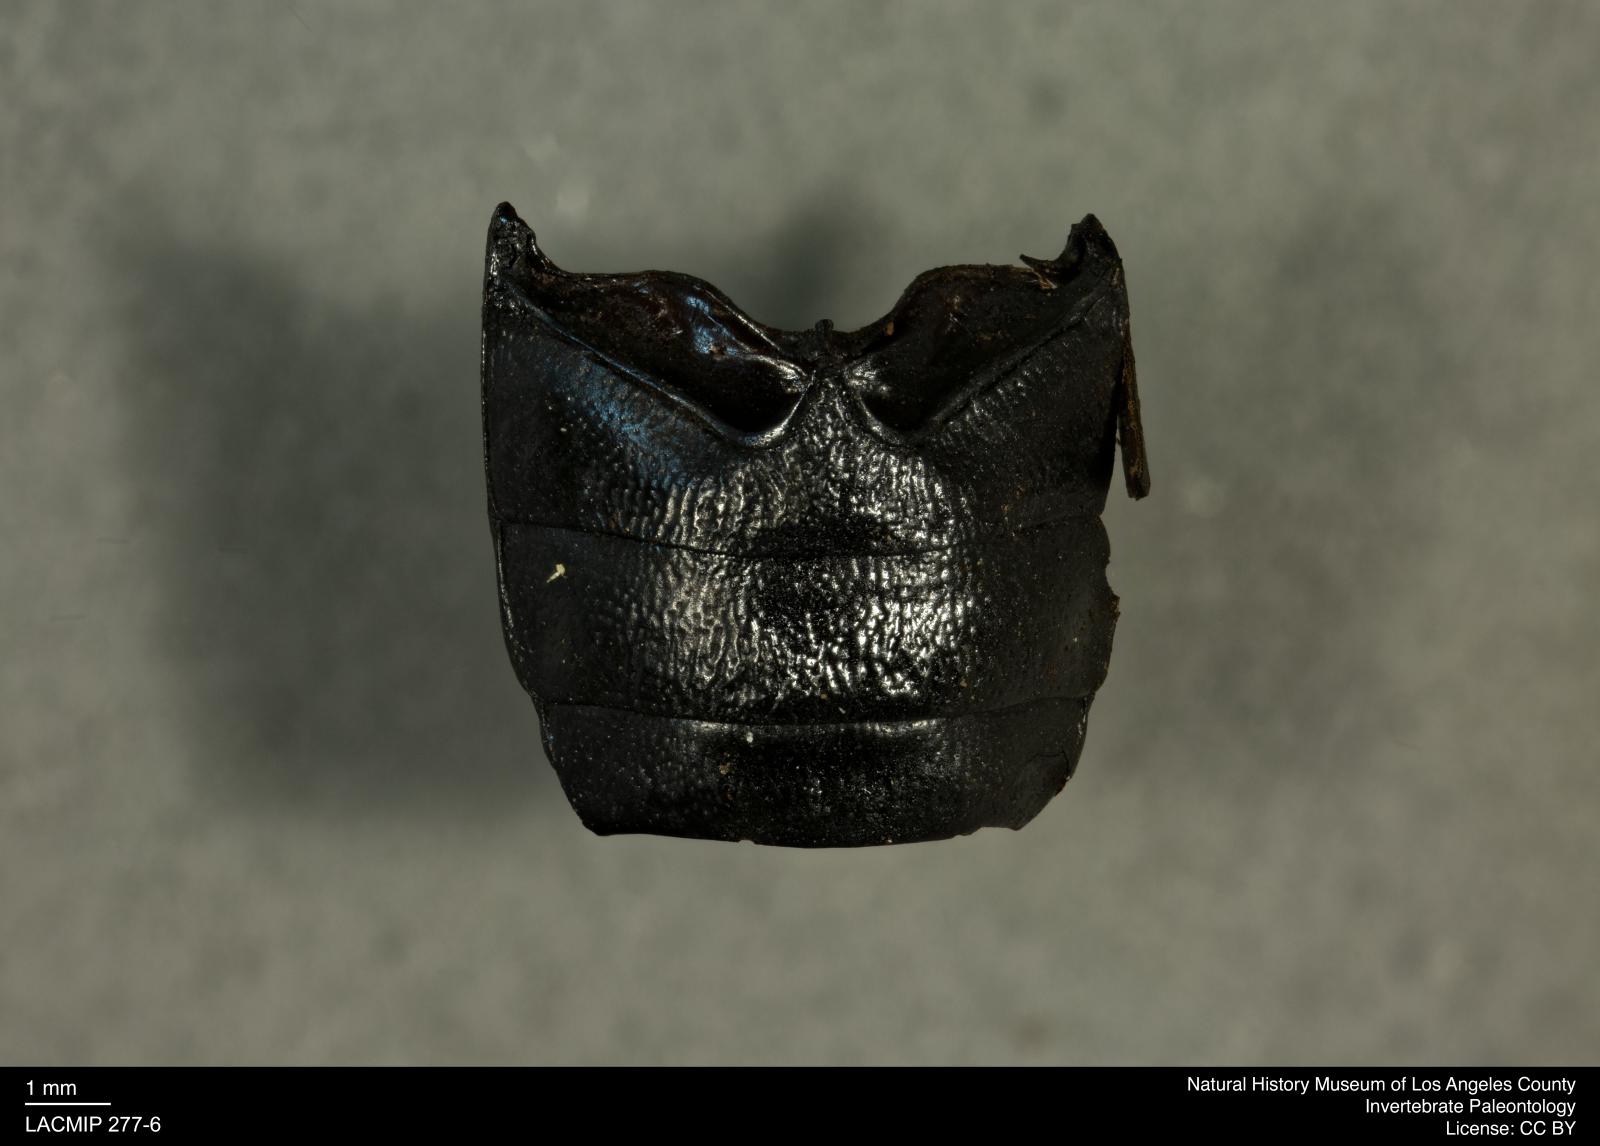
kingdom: Animalia
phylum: Arthropoda
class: Insecta
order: Coleoptera
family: Tenebrionidae
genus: Coniontis
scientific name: Coniontis abdominalis
